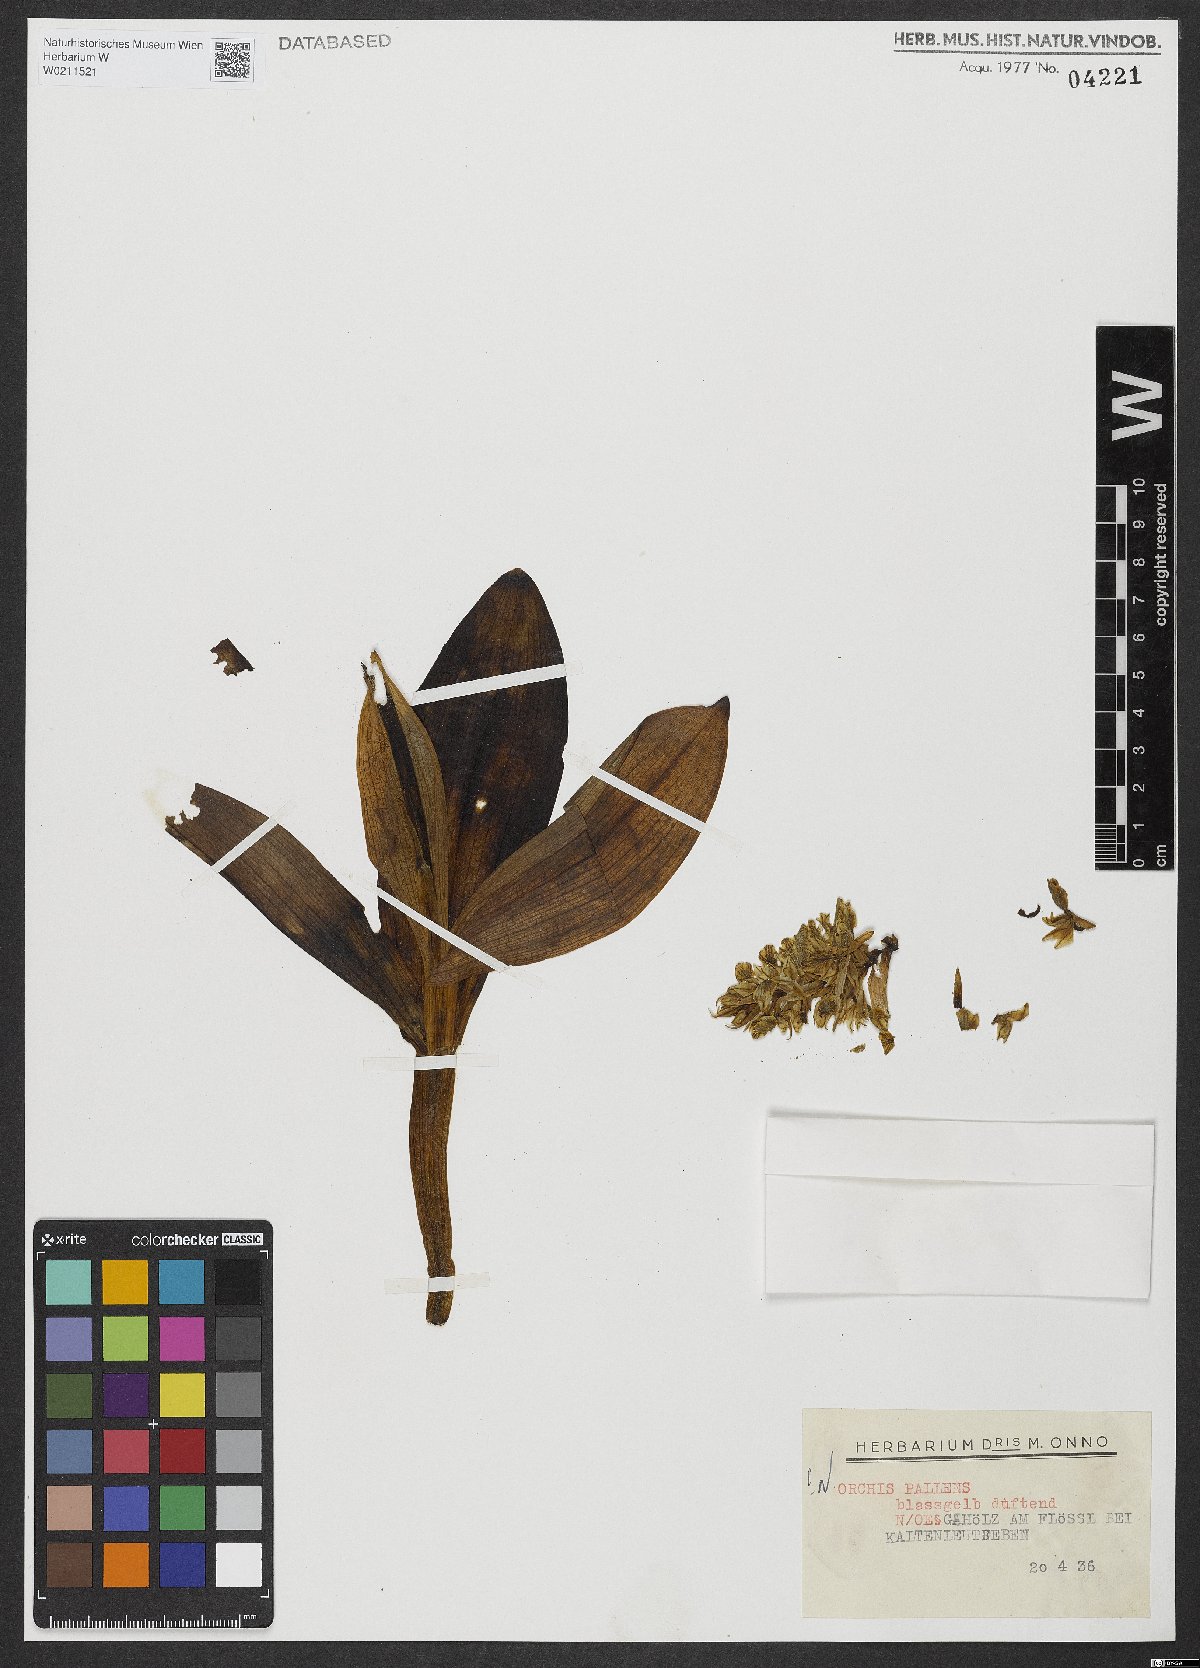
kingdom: Plantae
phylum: Tracheophyta
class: Liliopsida
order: Asparagales
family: Orchidaceae
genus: Orchis
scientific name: Orchis pallens
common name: Pale-flowered orchid
